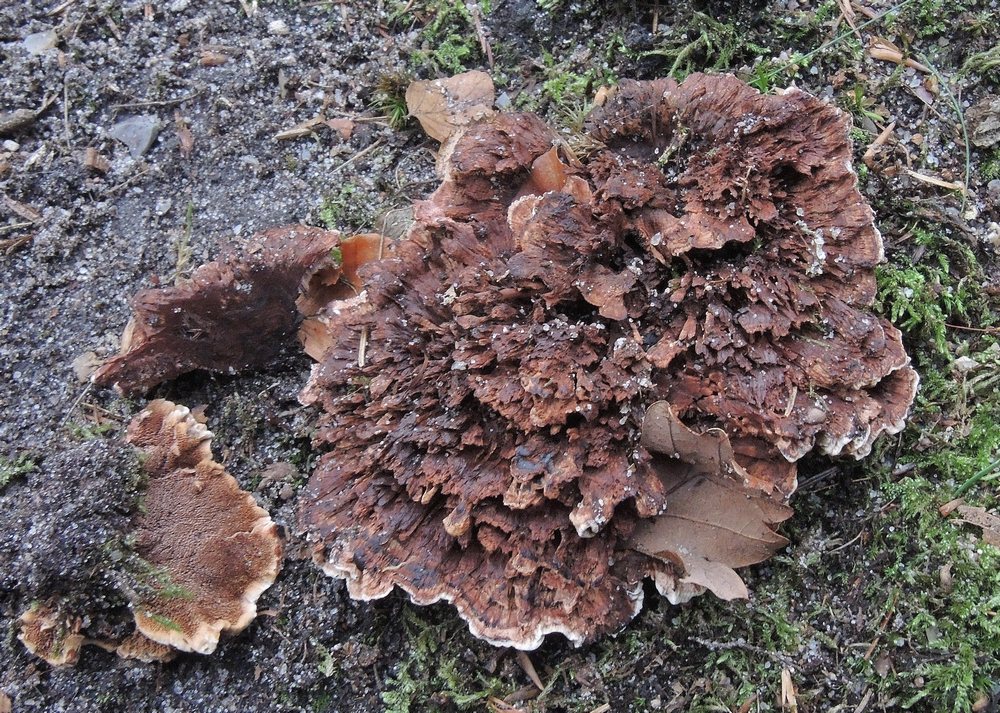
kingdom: Fungi
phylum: Basidiomycota
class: Agaricomycetes
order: Thelephorales
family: Bankeraceae
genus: Hydnellum
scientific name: Hydnellum concrescens
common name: bæltet korkpigsvamp
